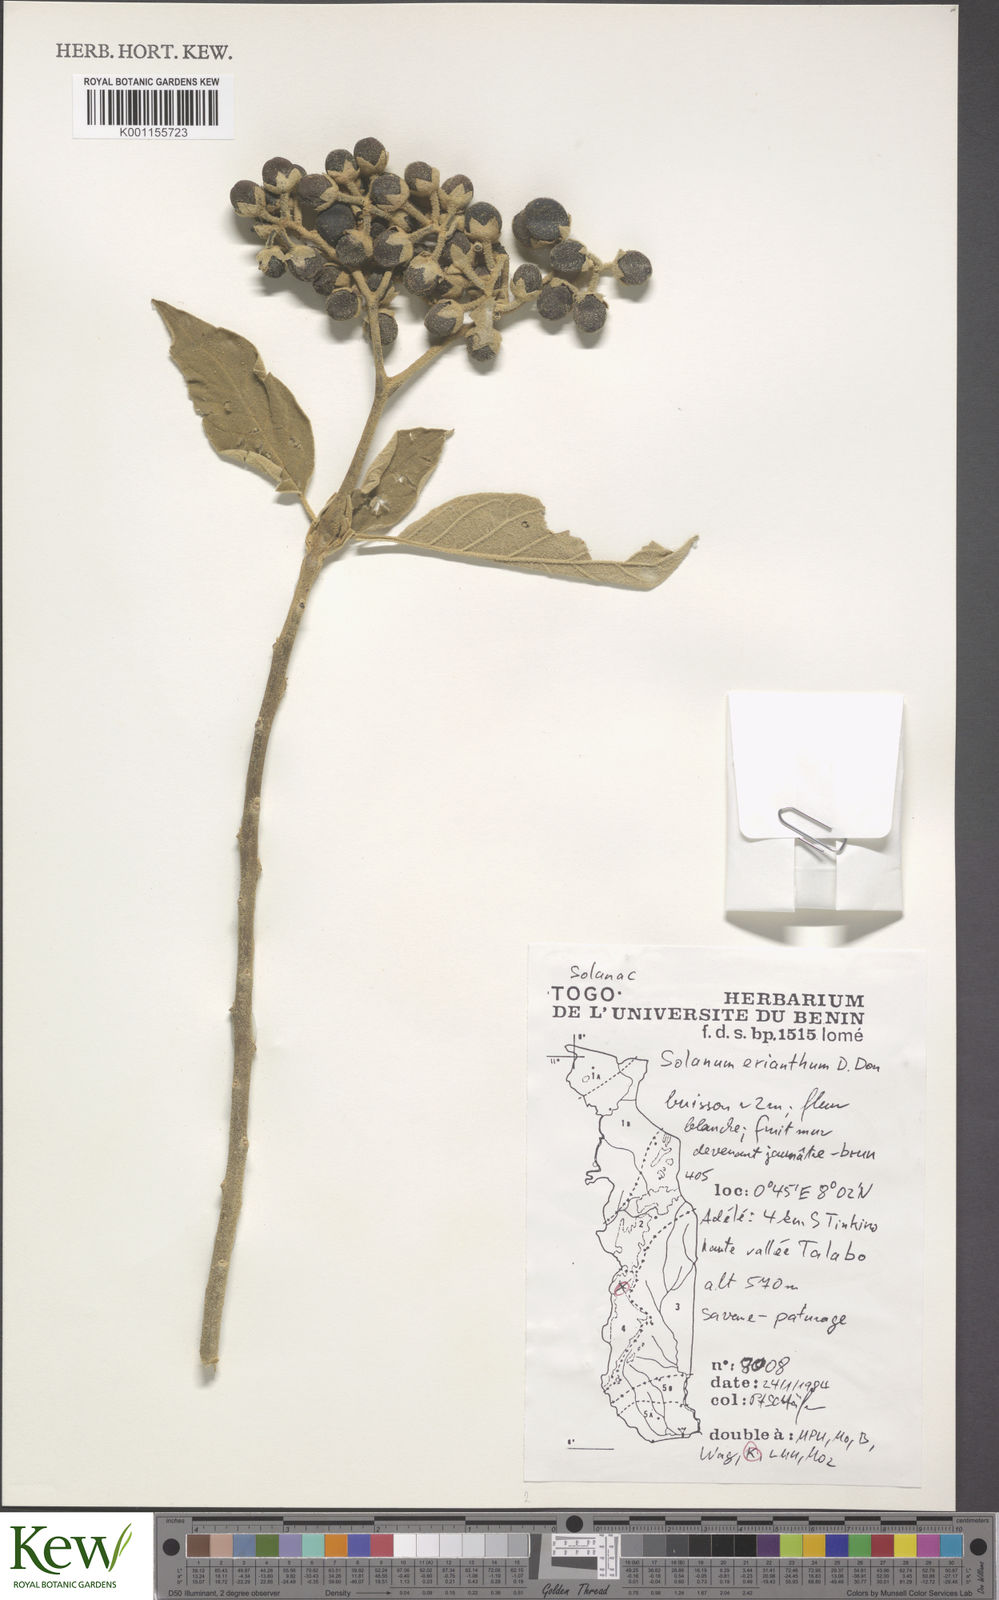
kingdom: Plantae
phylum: Tracheophyta
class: Magnoliopsida
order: Solanales
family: Solanaceae
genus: Solanum
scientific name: Solanum erianthum
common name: Tobacco-tree
